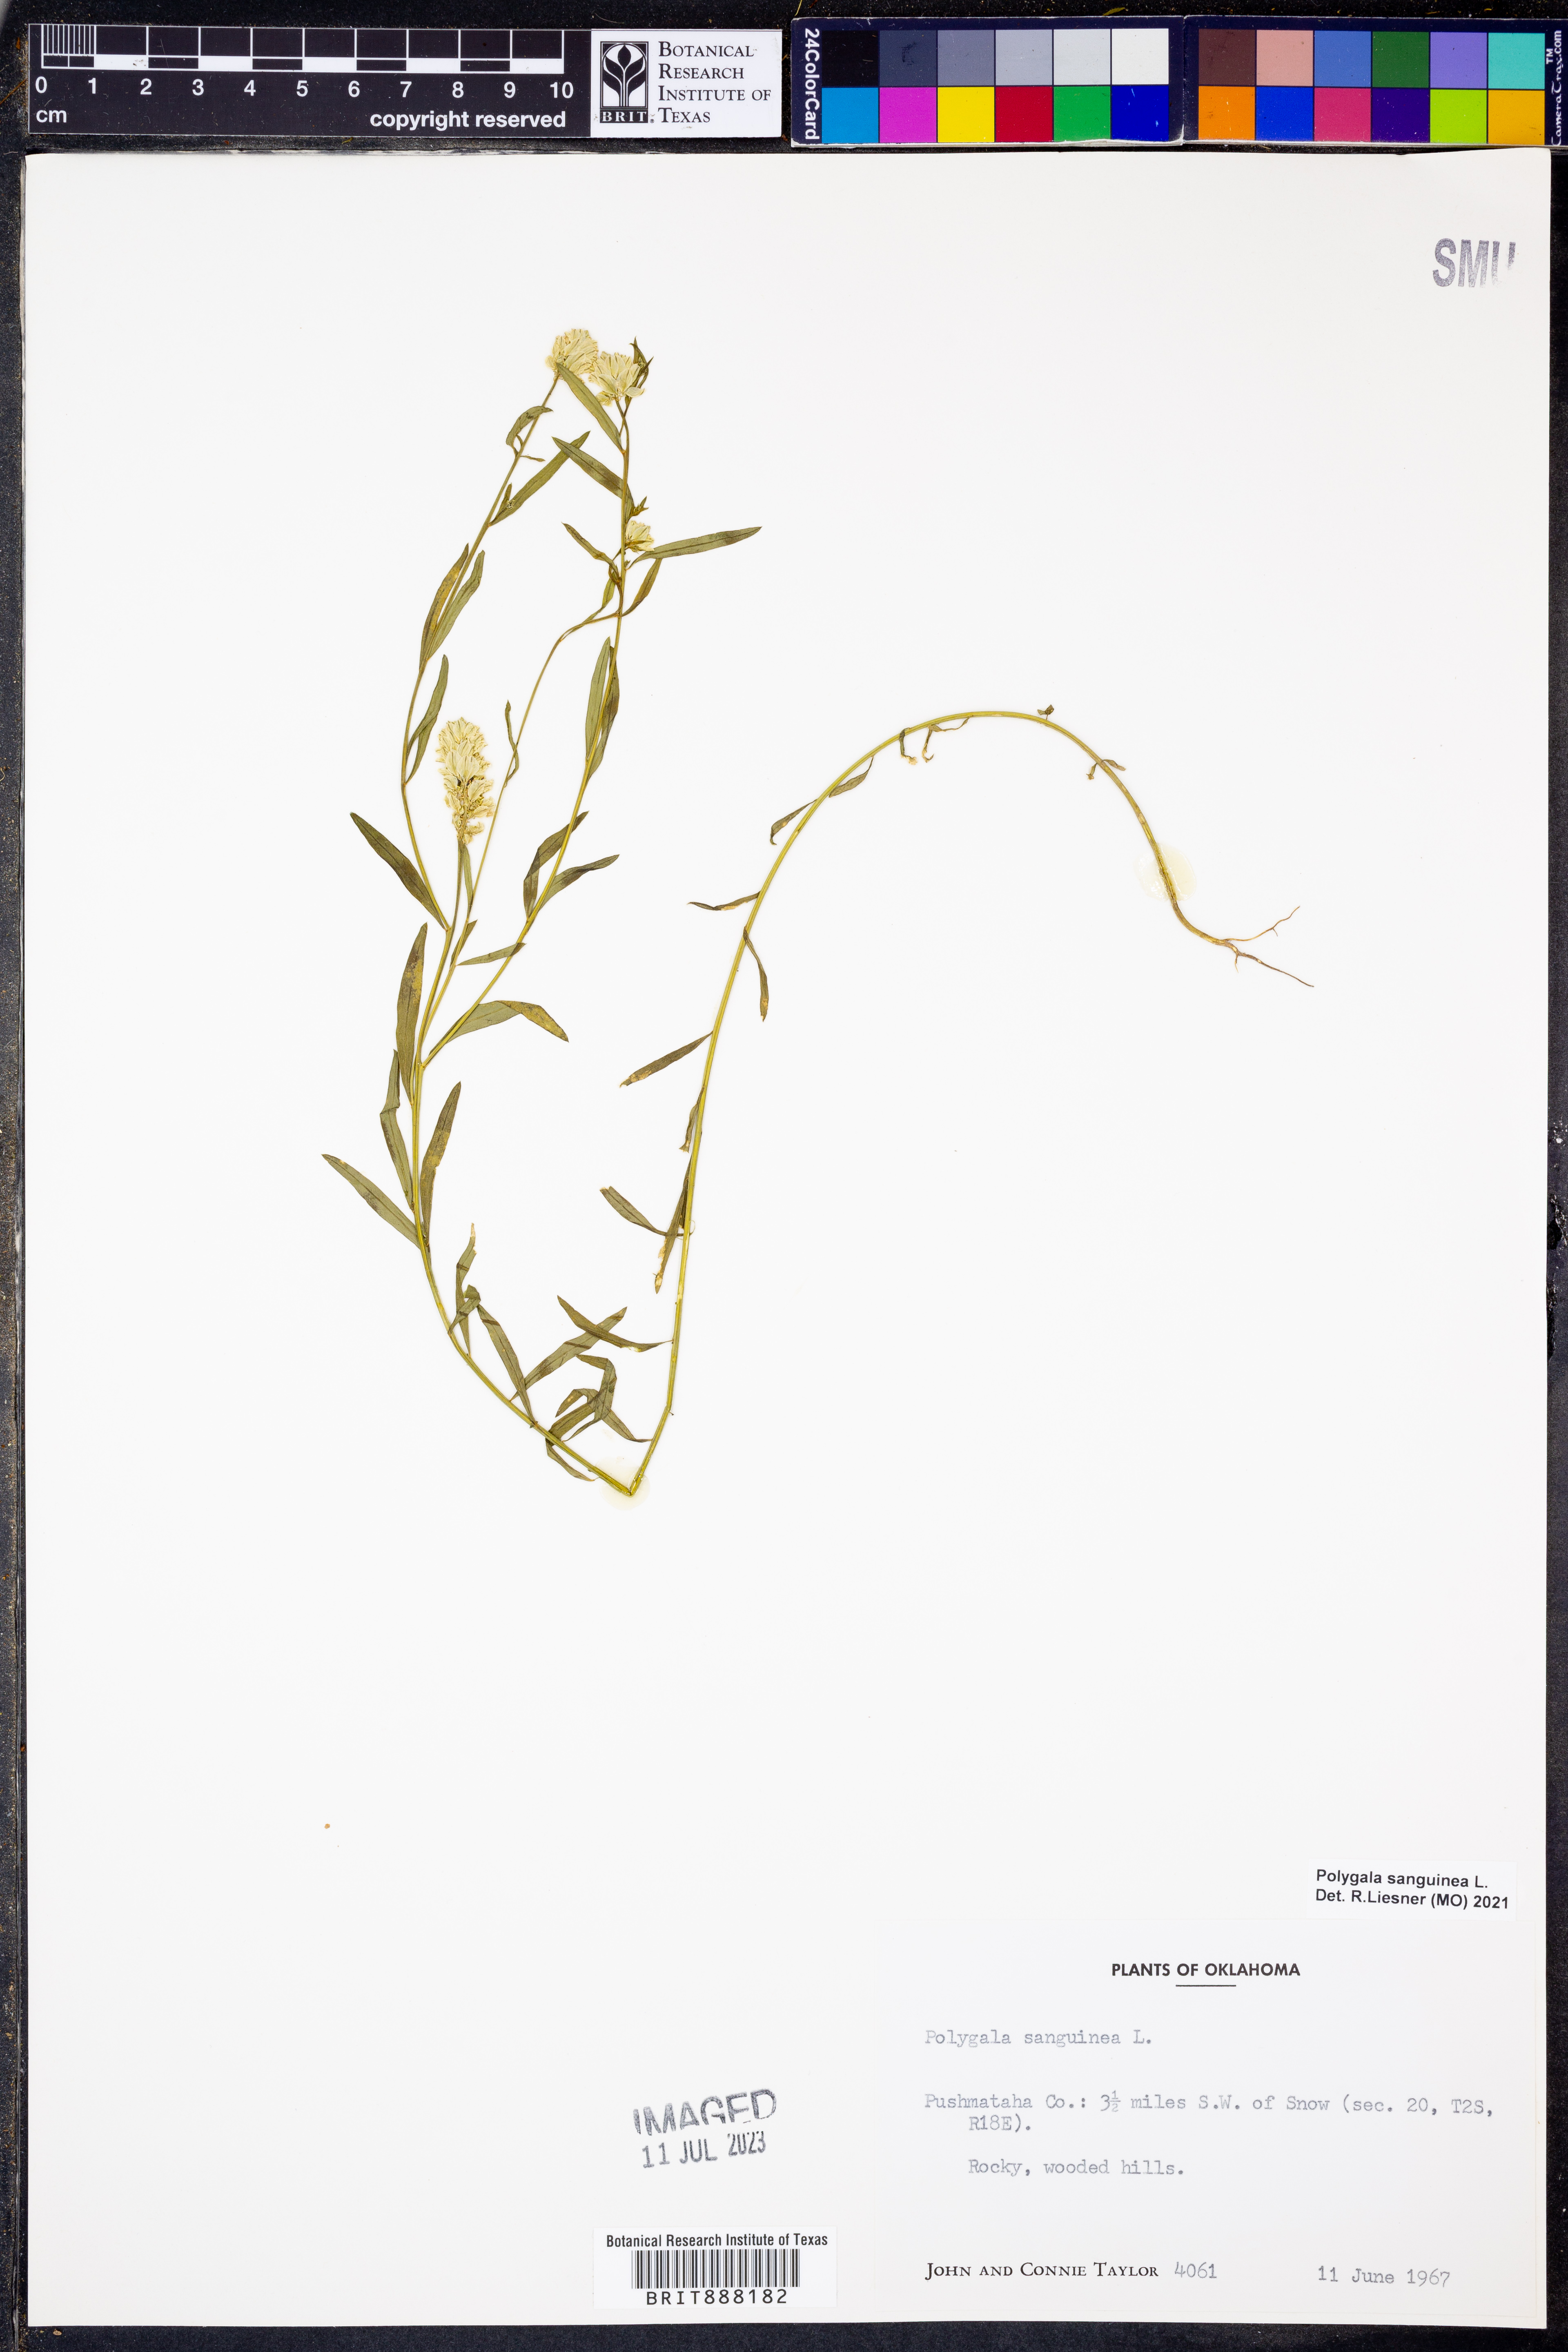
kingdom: Plantae
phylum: Tracheophyta
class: Magnoliopsida
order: Fabales
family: Polygalaceae
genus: Polygala
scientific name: Polygala sanguinea
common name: Blood milkwort
